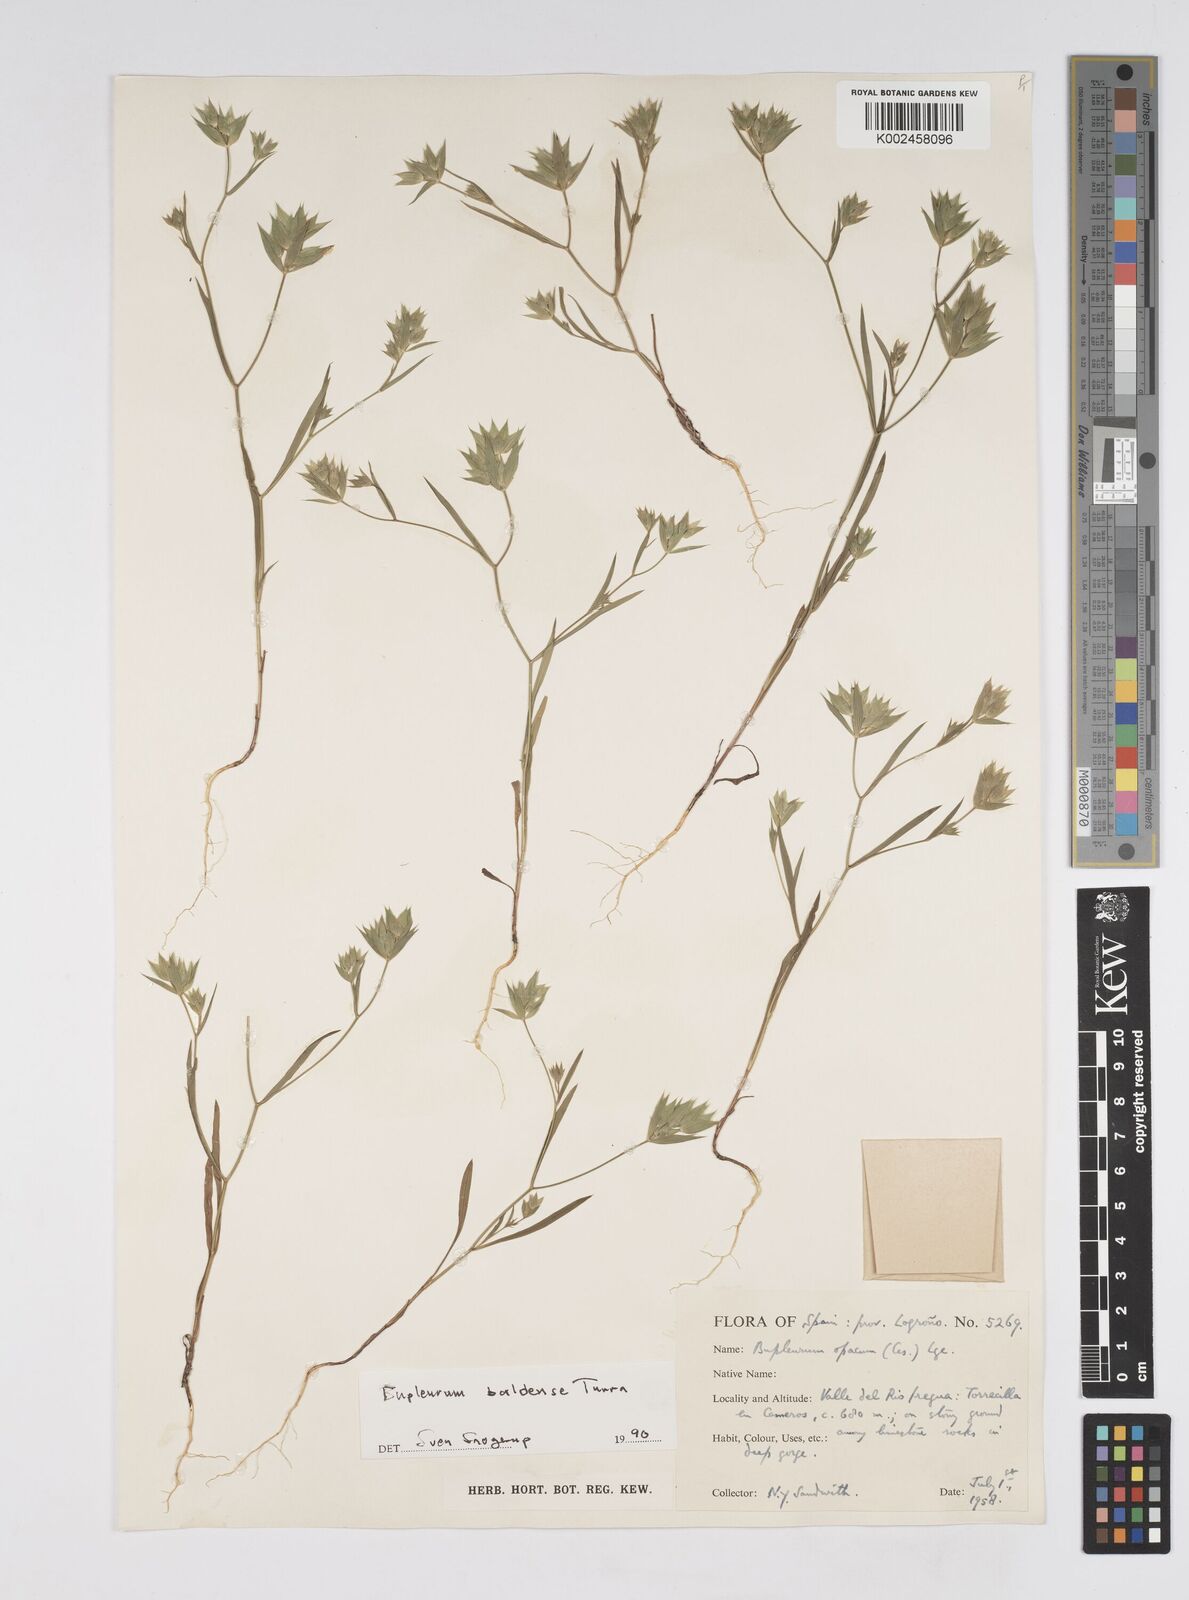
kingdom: Plantae
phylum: Tracheophyta
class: Magnoliopsida
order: Apiales
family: Apiaceae
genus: Bupleurum
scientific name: Bupleurum baldense
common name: Small hare's-ear
